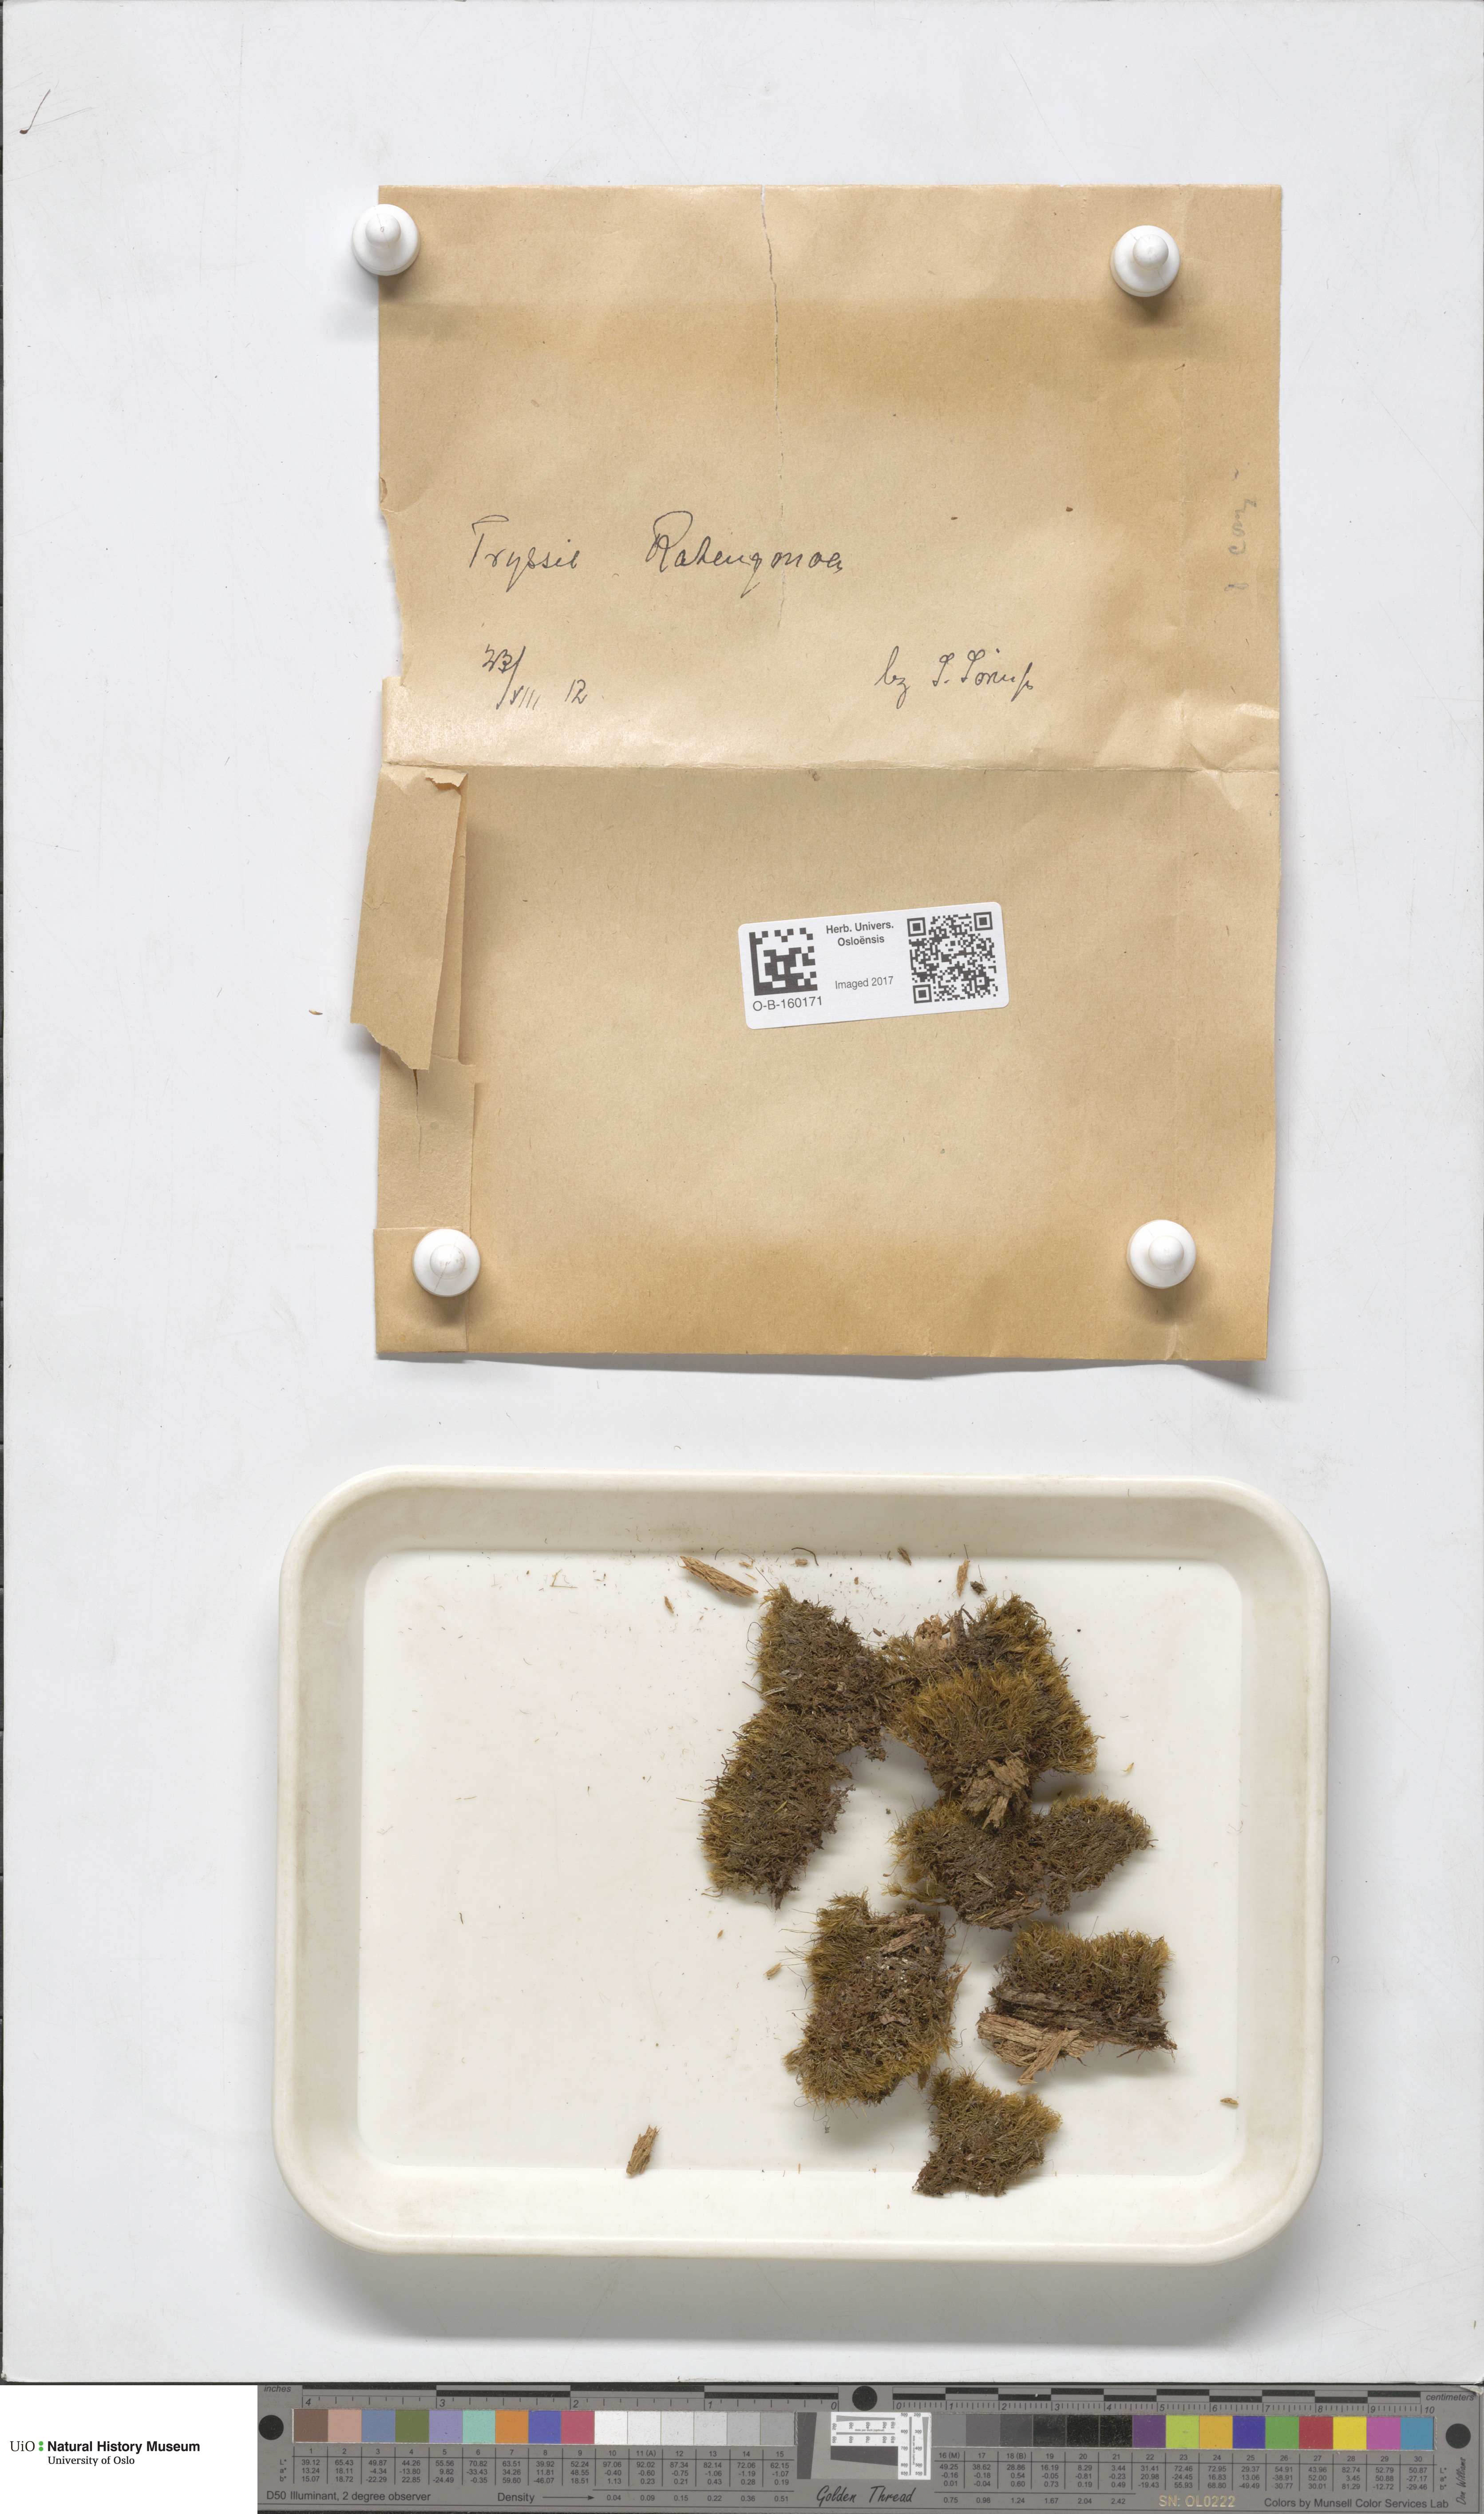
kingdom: Plantae
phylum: Bryophyta
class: Bryopsida
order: Dicranales
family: Dicranaceae
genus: Dicranum
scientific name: Dicranum flexicaule
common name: Bendy heron s-bill moss
